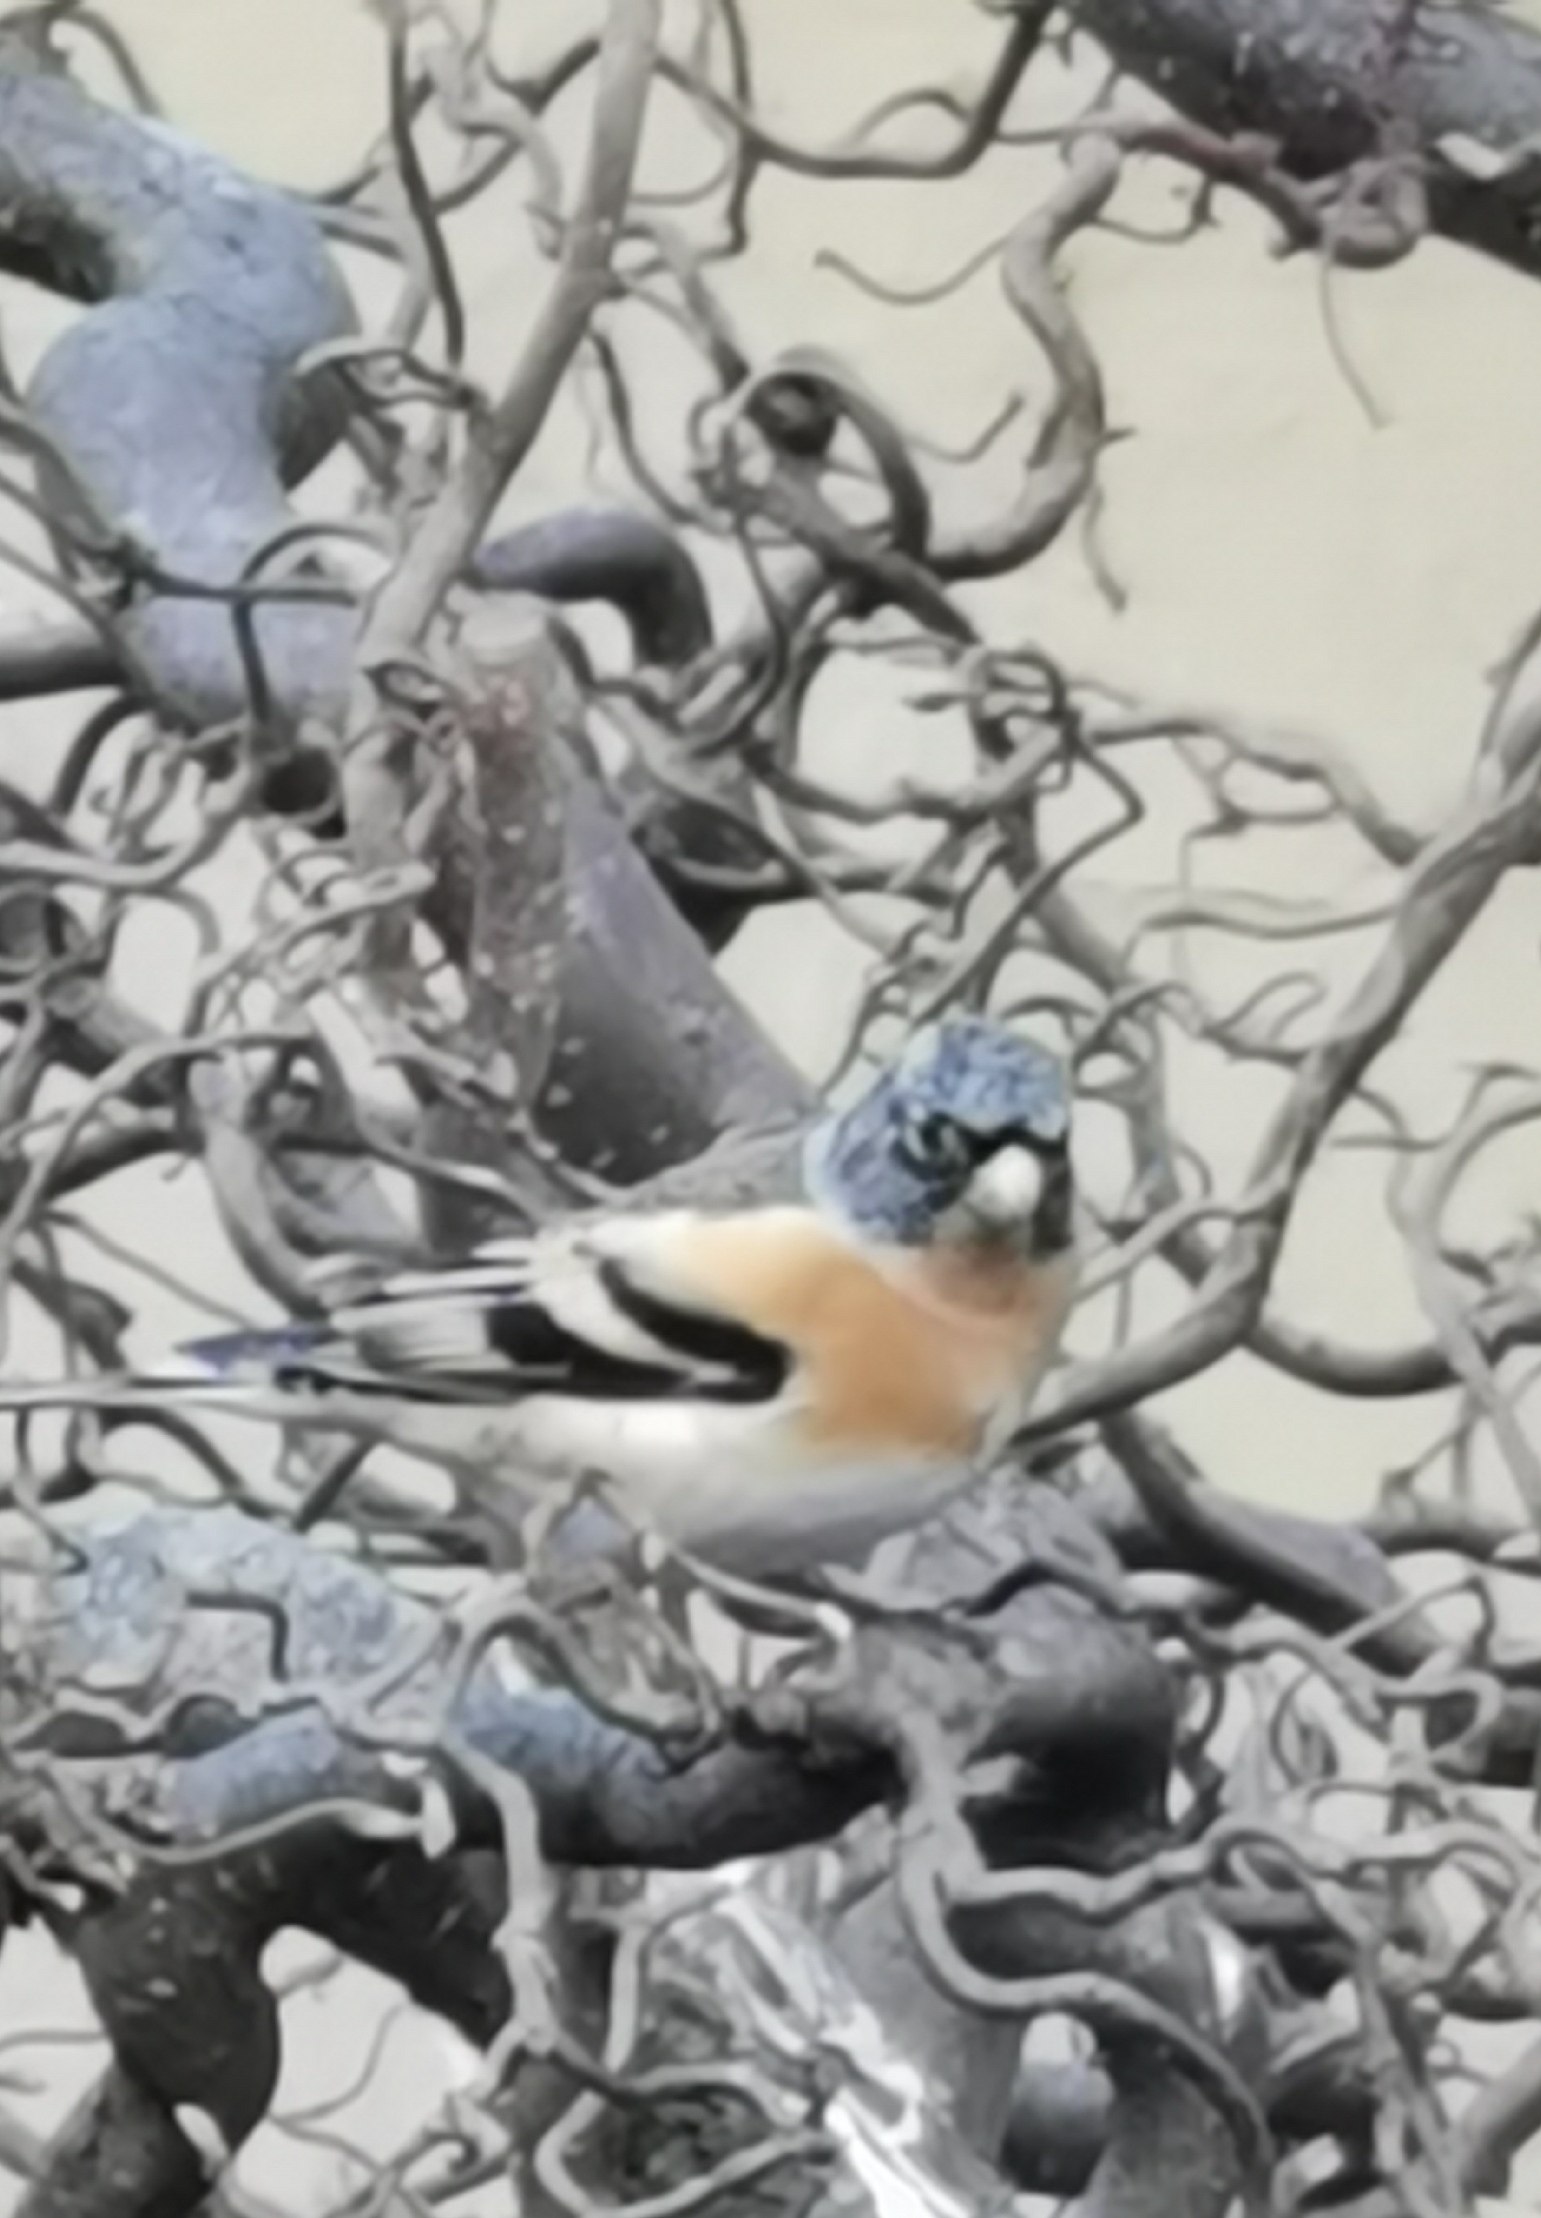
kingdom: Animalia
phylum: Chordata
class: Aves
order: Passeriformes
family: Fringillidae
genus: Fringilla
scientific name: Fringilla montifringilla
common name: Kvækerfinke
